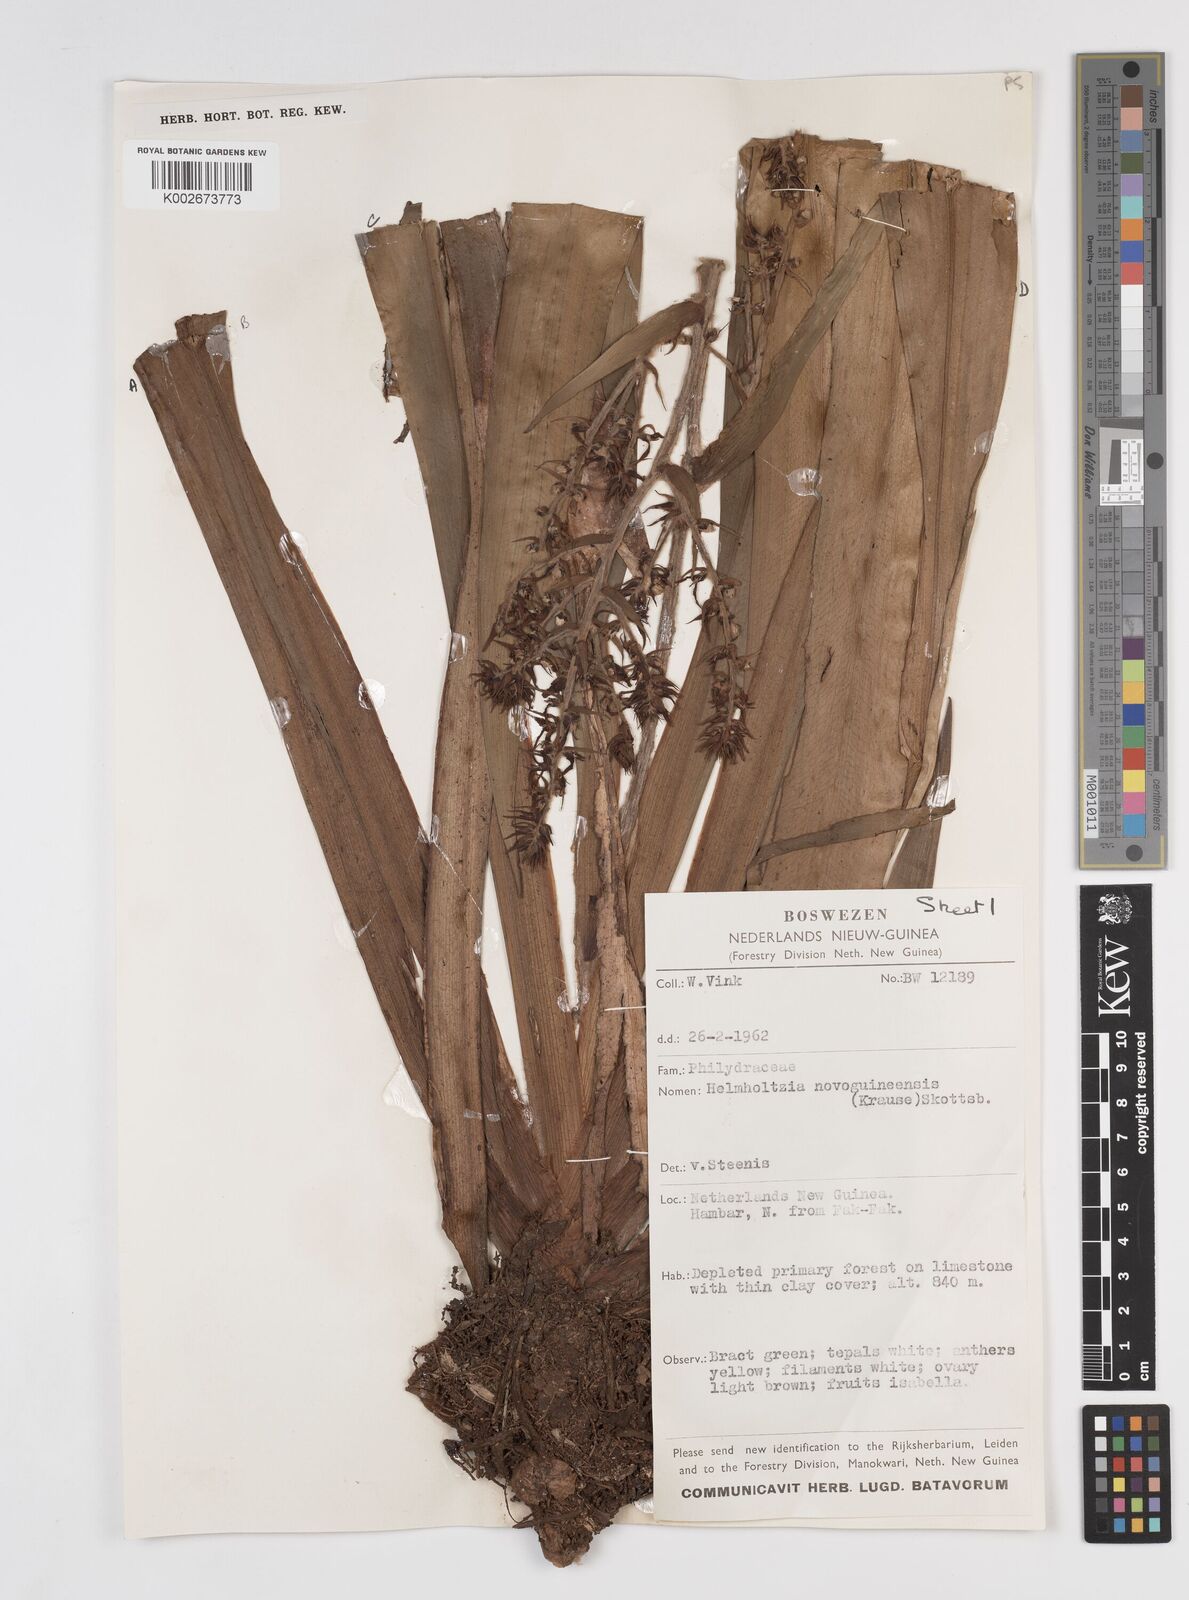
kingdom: Plantae
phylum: Tracheophyta
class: Liliopsida
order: Commelinales
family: Philydraceae
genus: Helmholtzia
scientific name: Helmholtzia novoguineensis
